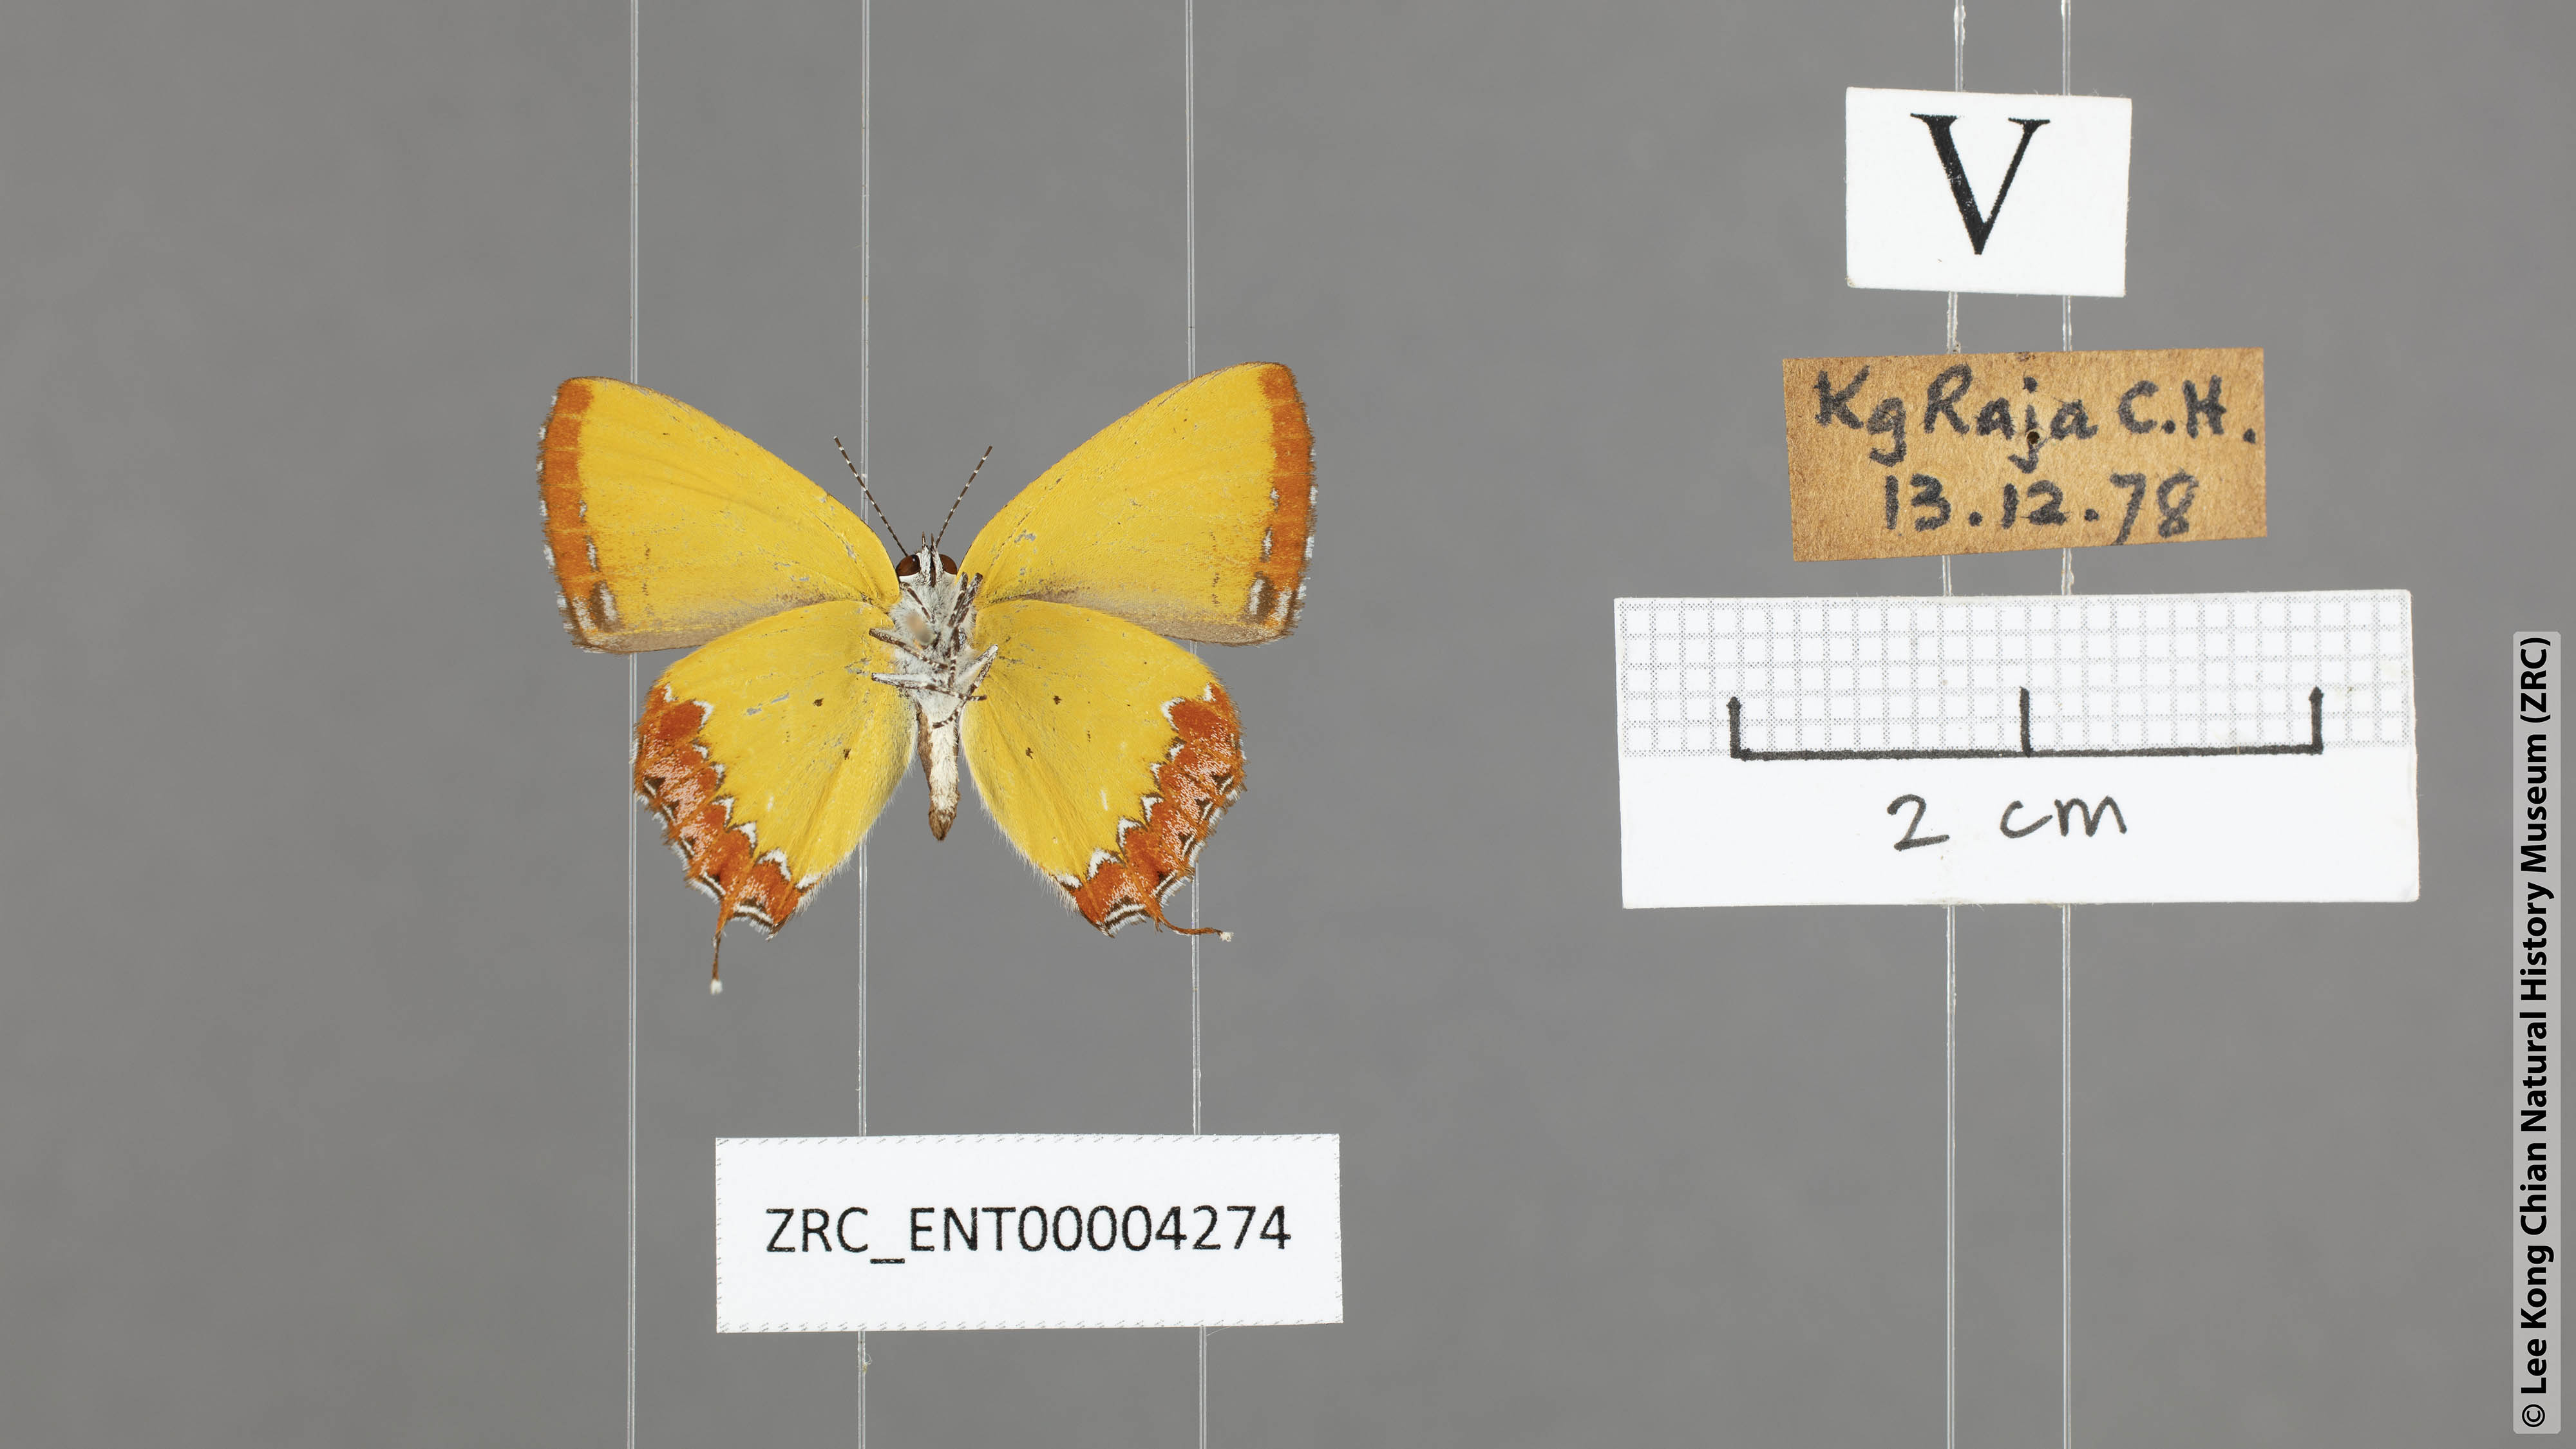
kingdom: Animalia
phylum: Arthropoda
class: Insecta
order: Lepidoptera
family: Lycaenidae
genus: Heliophorus
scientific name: Heliophorus epicles
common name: Purple sapphire
